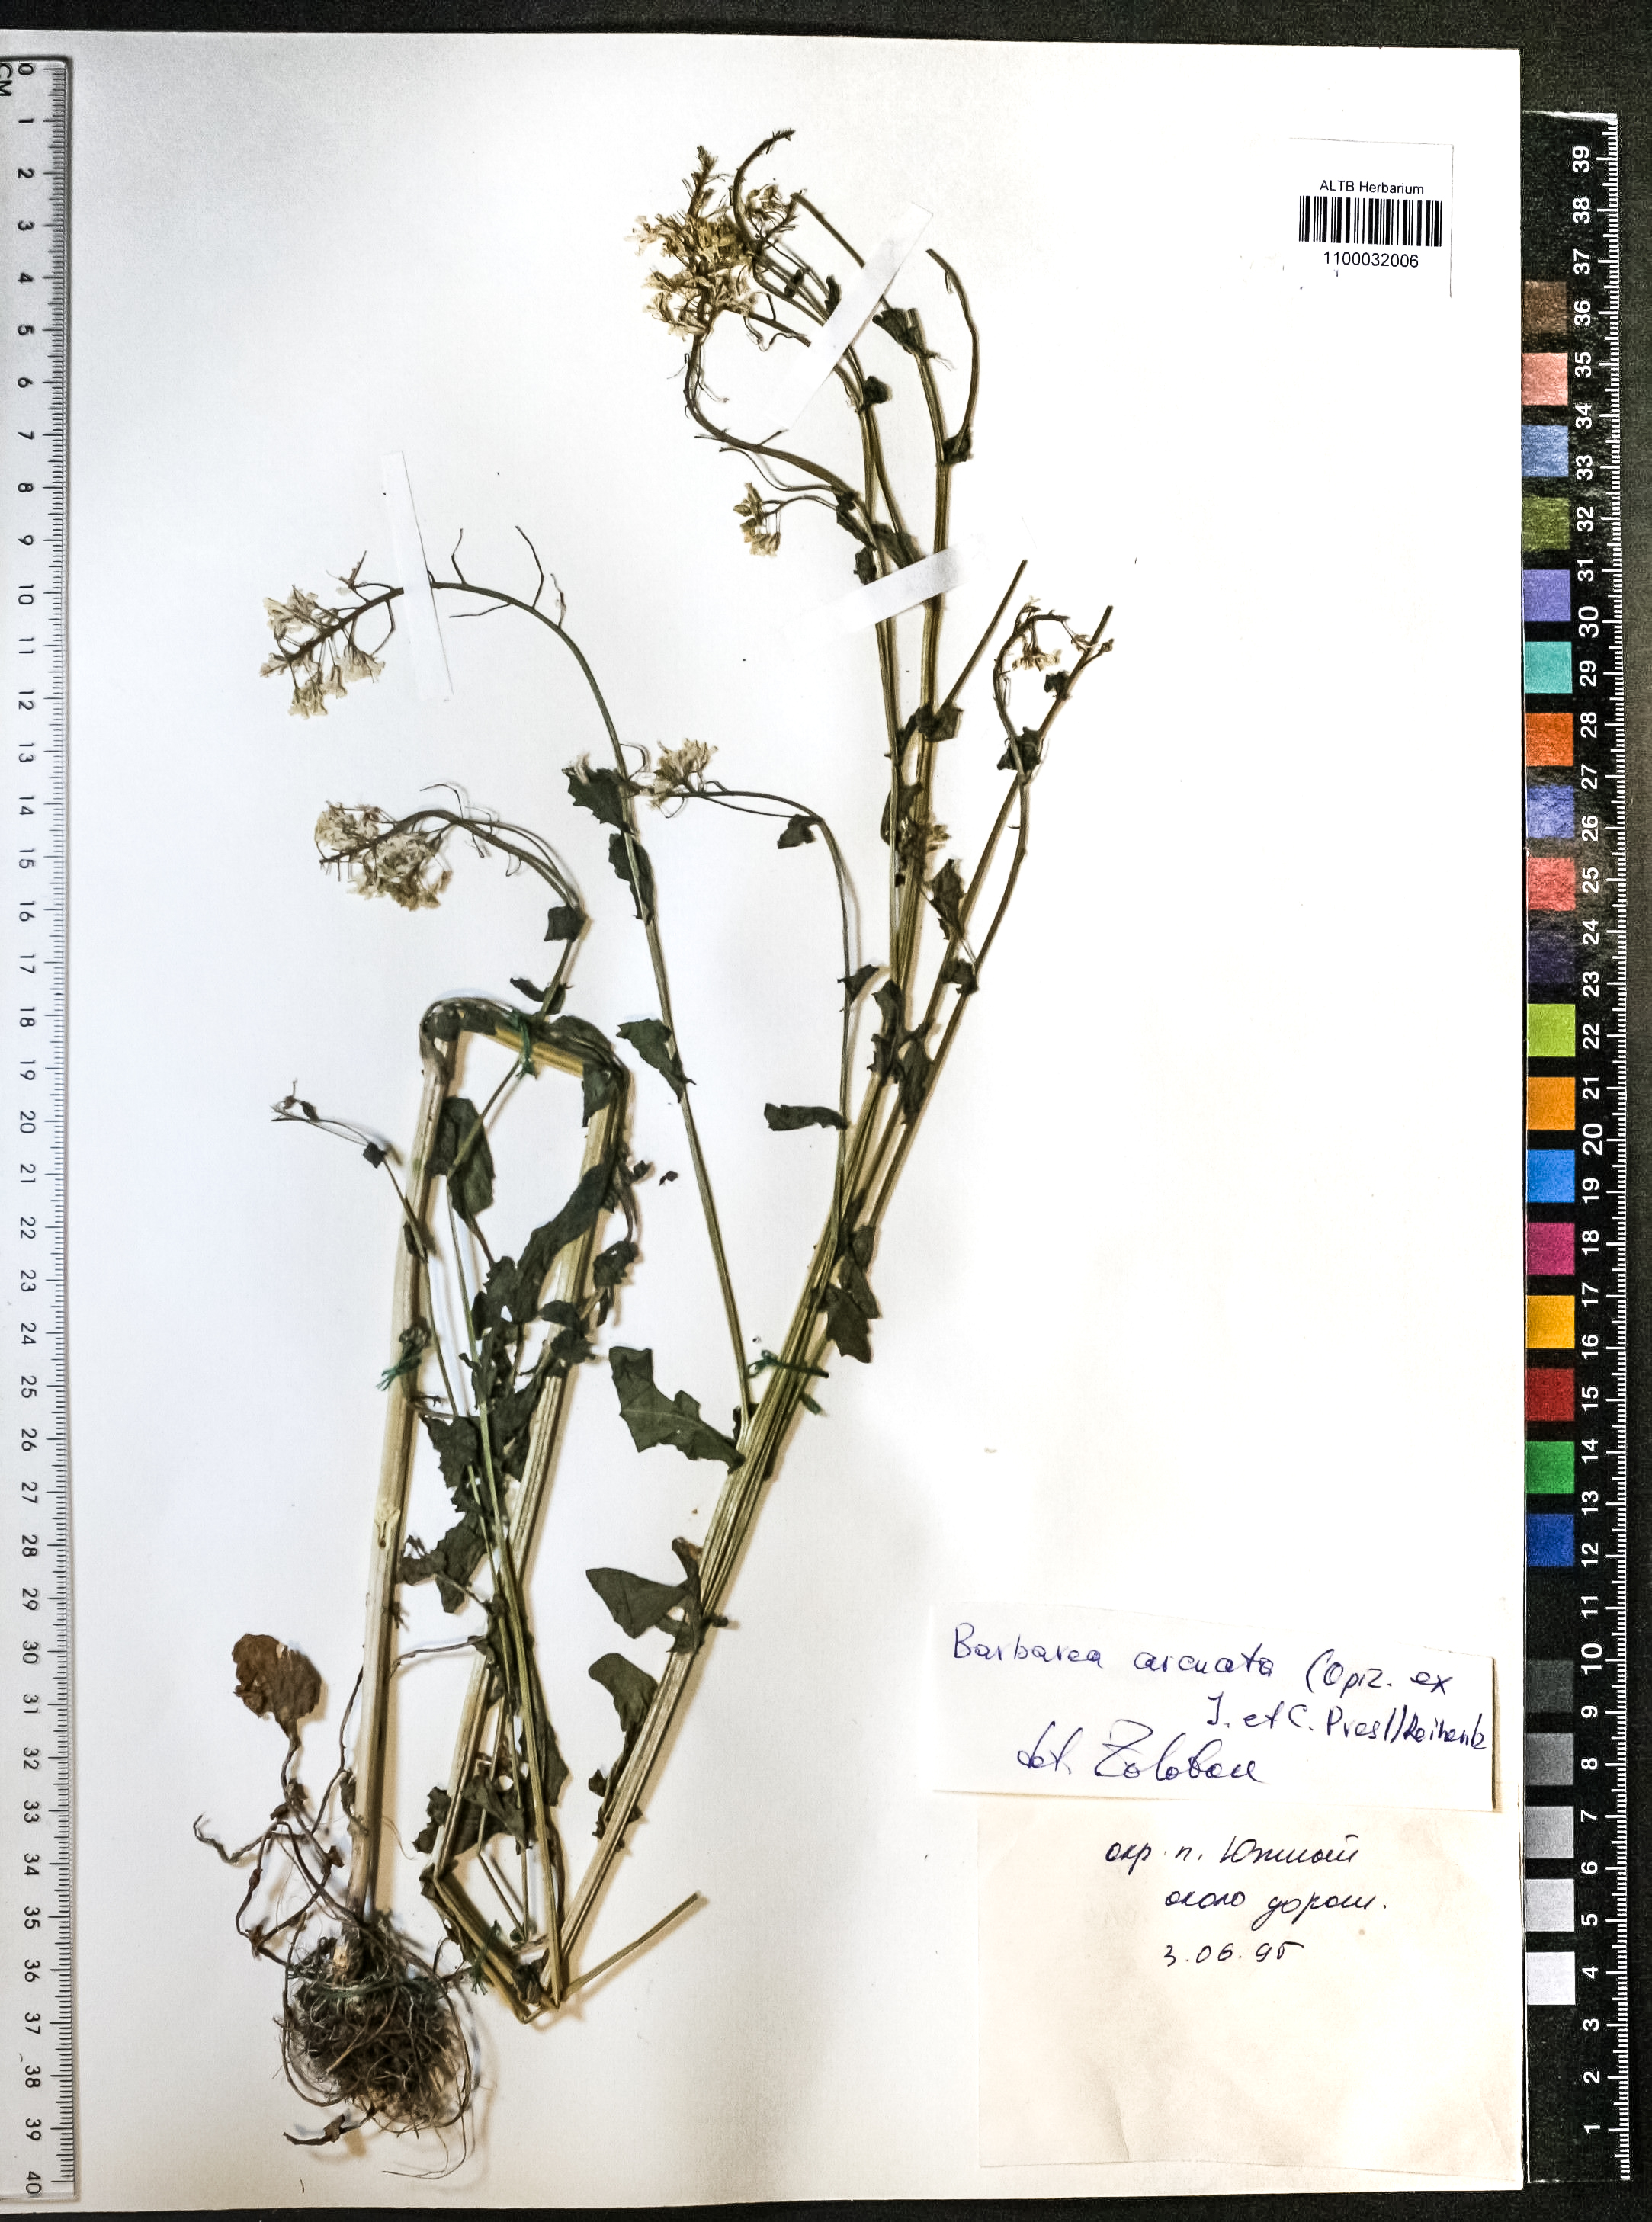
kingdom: Plantae
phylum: Tracheophyta
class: Magnoliopsida
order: Brassicales
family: Brassicaceae
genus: Barbarea
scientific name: Barbarea vulgaris
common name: Cressy-greens
